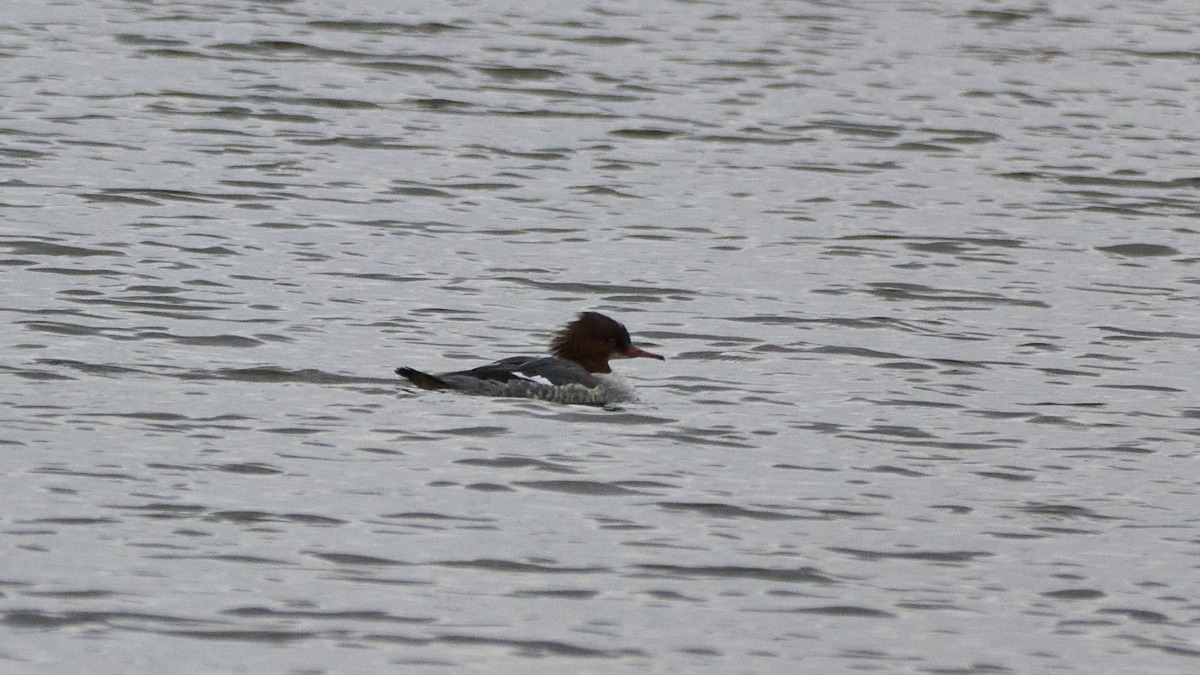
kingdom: Animalia
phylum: Chordata
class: Aves
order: Anseriformes
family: Anatidae
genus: Mergus
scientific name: Mergus merganser
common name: Stor skallesluger
